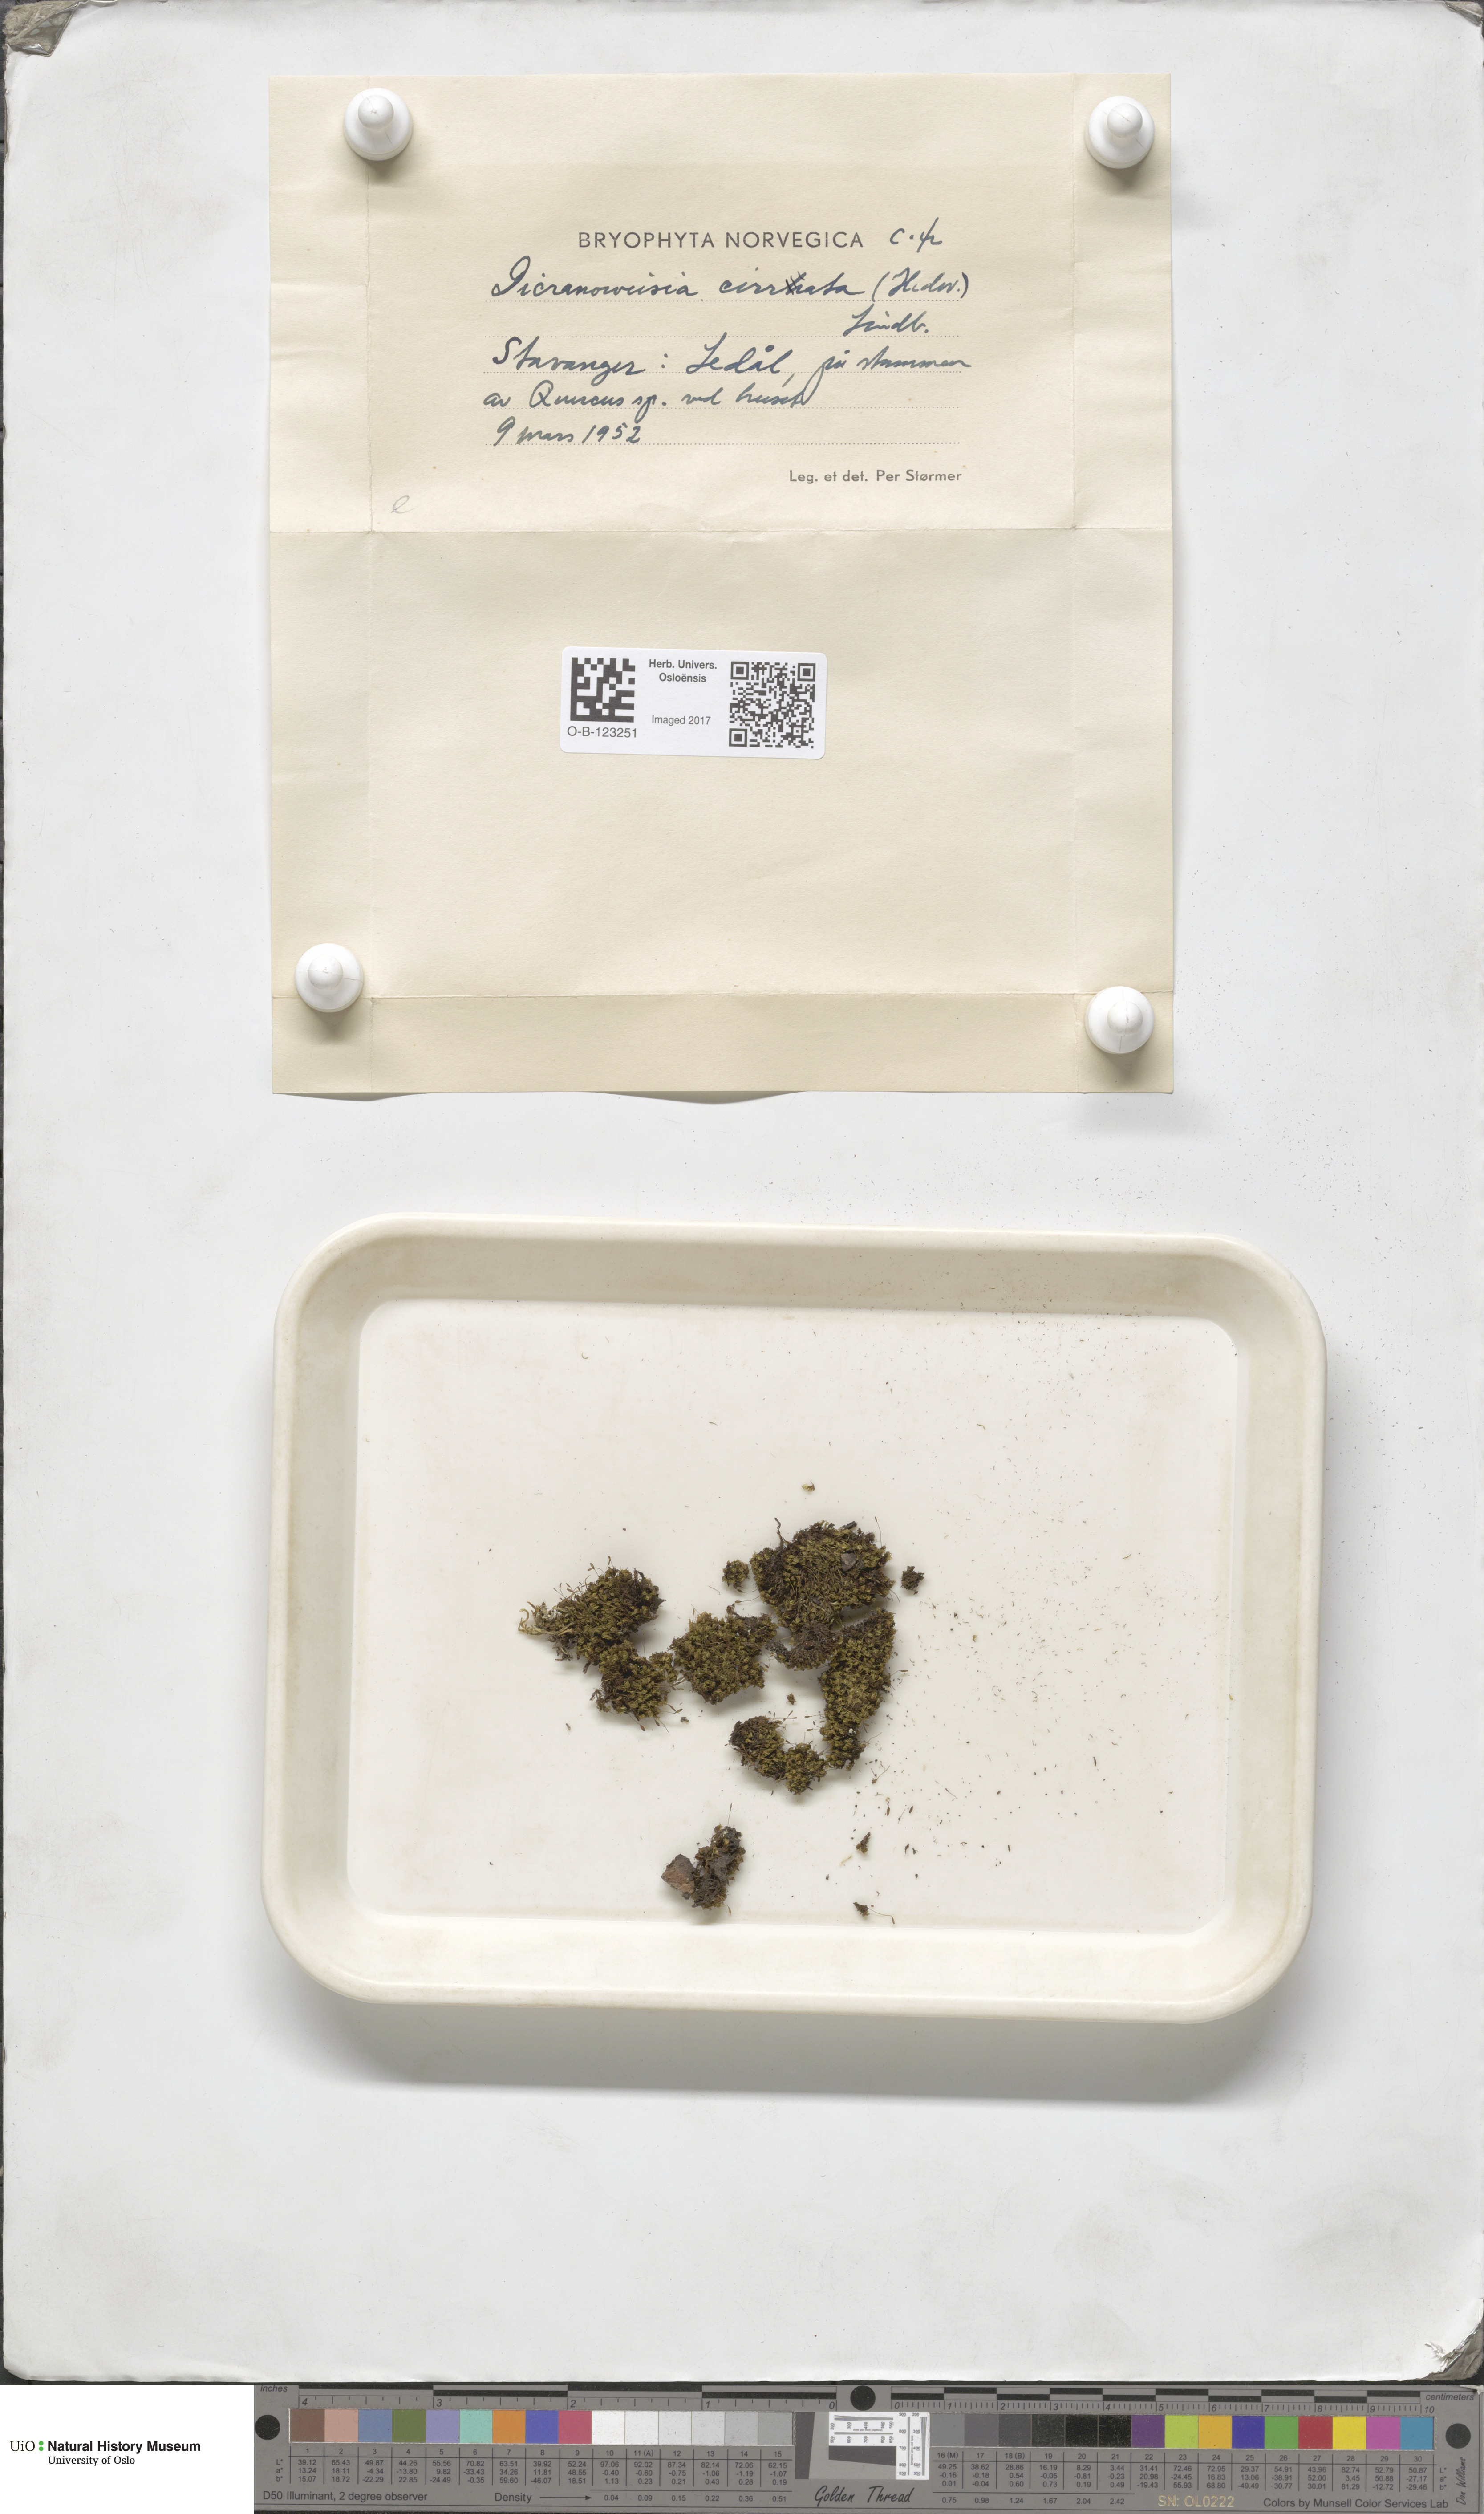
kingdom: Plantae
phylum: Bryophyta
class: Bryopsida
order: Dicranales
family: Rhabdoweisiaceae
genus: Dicranoweisia
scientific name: Dicranoweisia cirrata
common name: Common pincushion
